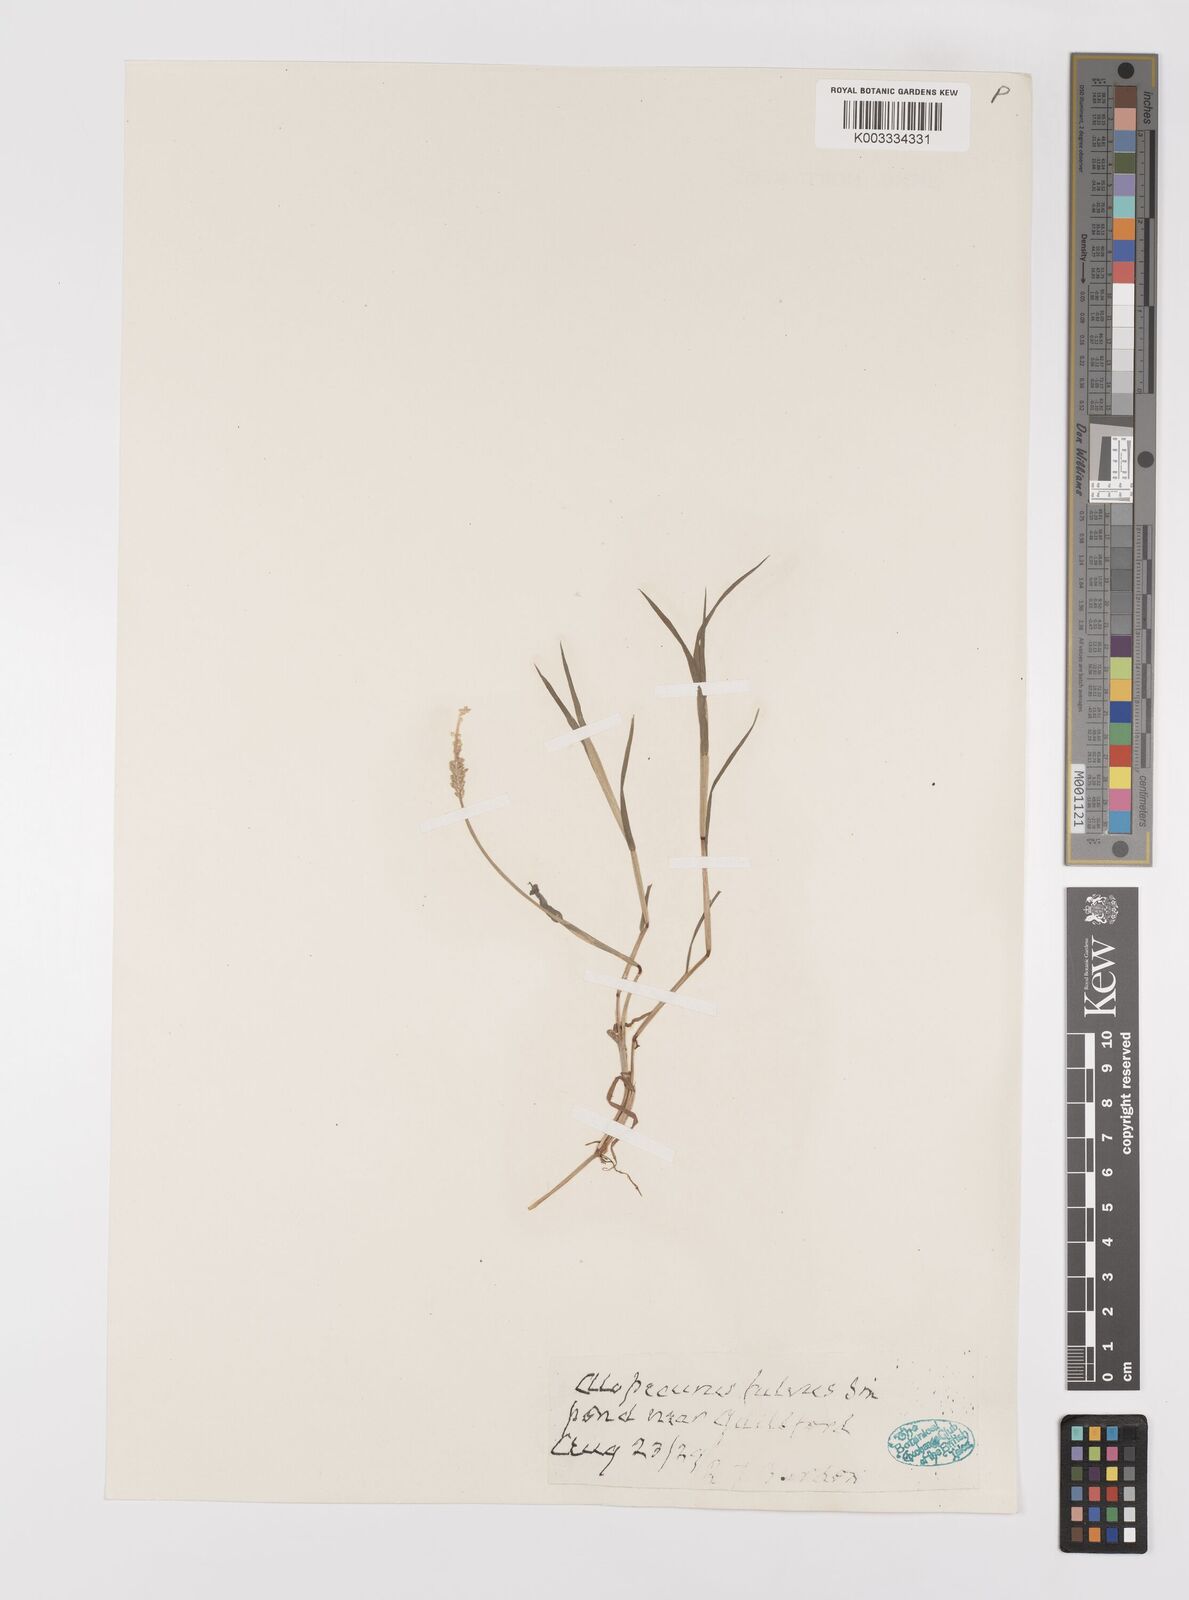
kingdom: Plantae
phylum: Tracheophyta
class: Liliopsida
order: Poales
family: Poaceae
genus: Alopecurus
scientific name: Alopecurus aequalis
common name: Orange foxtail
